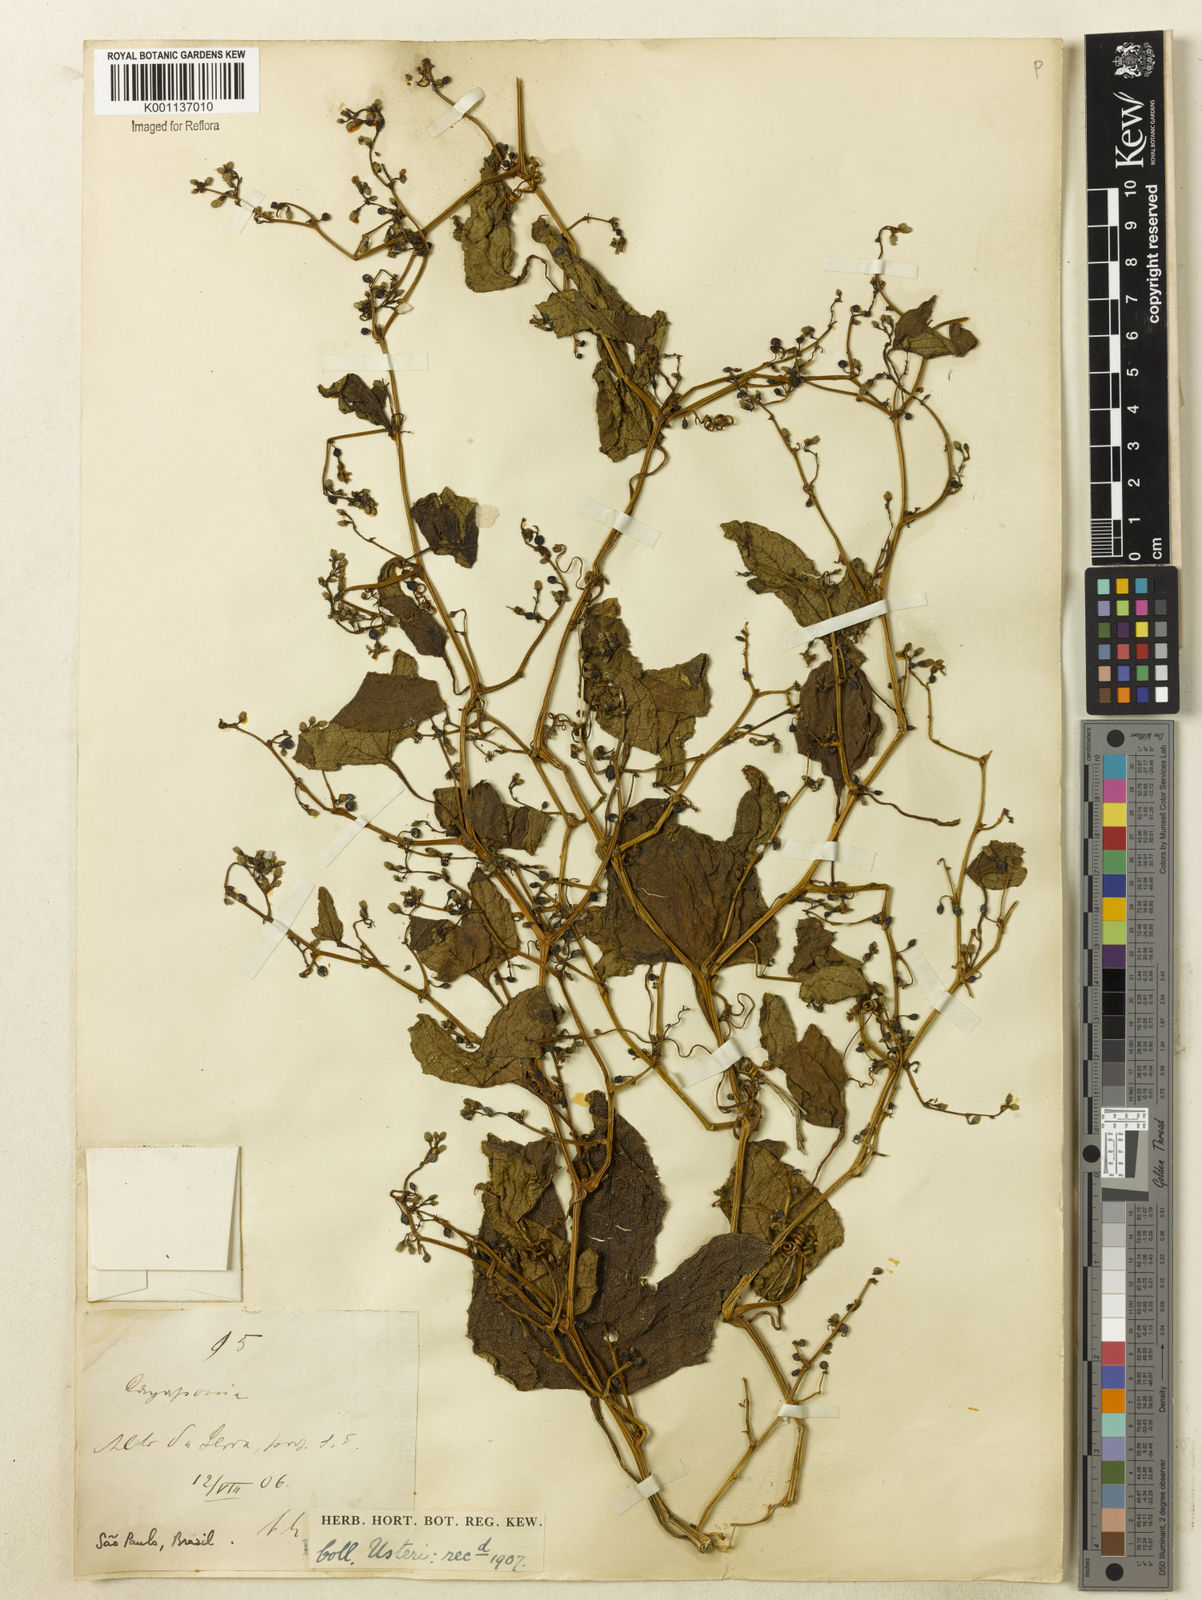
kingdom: Plantae
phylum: Tracheophyta
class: Magnoliopsida
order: Cucurbitales
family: Cucurbitaceae
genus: Cayaponia
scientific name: Cayaponia diversifolia
